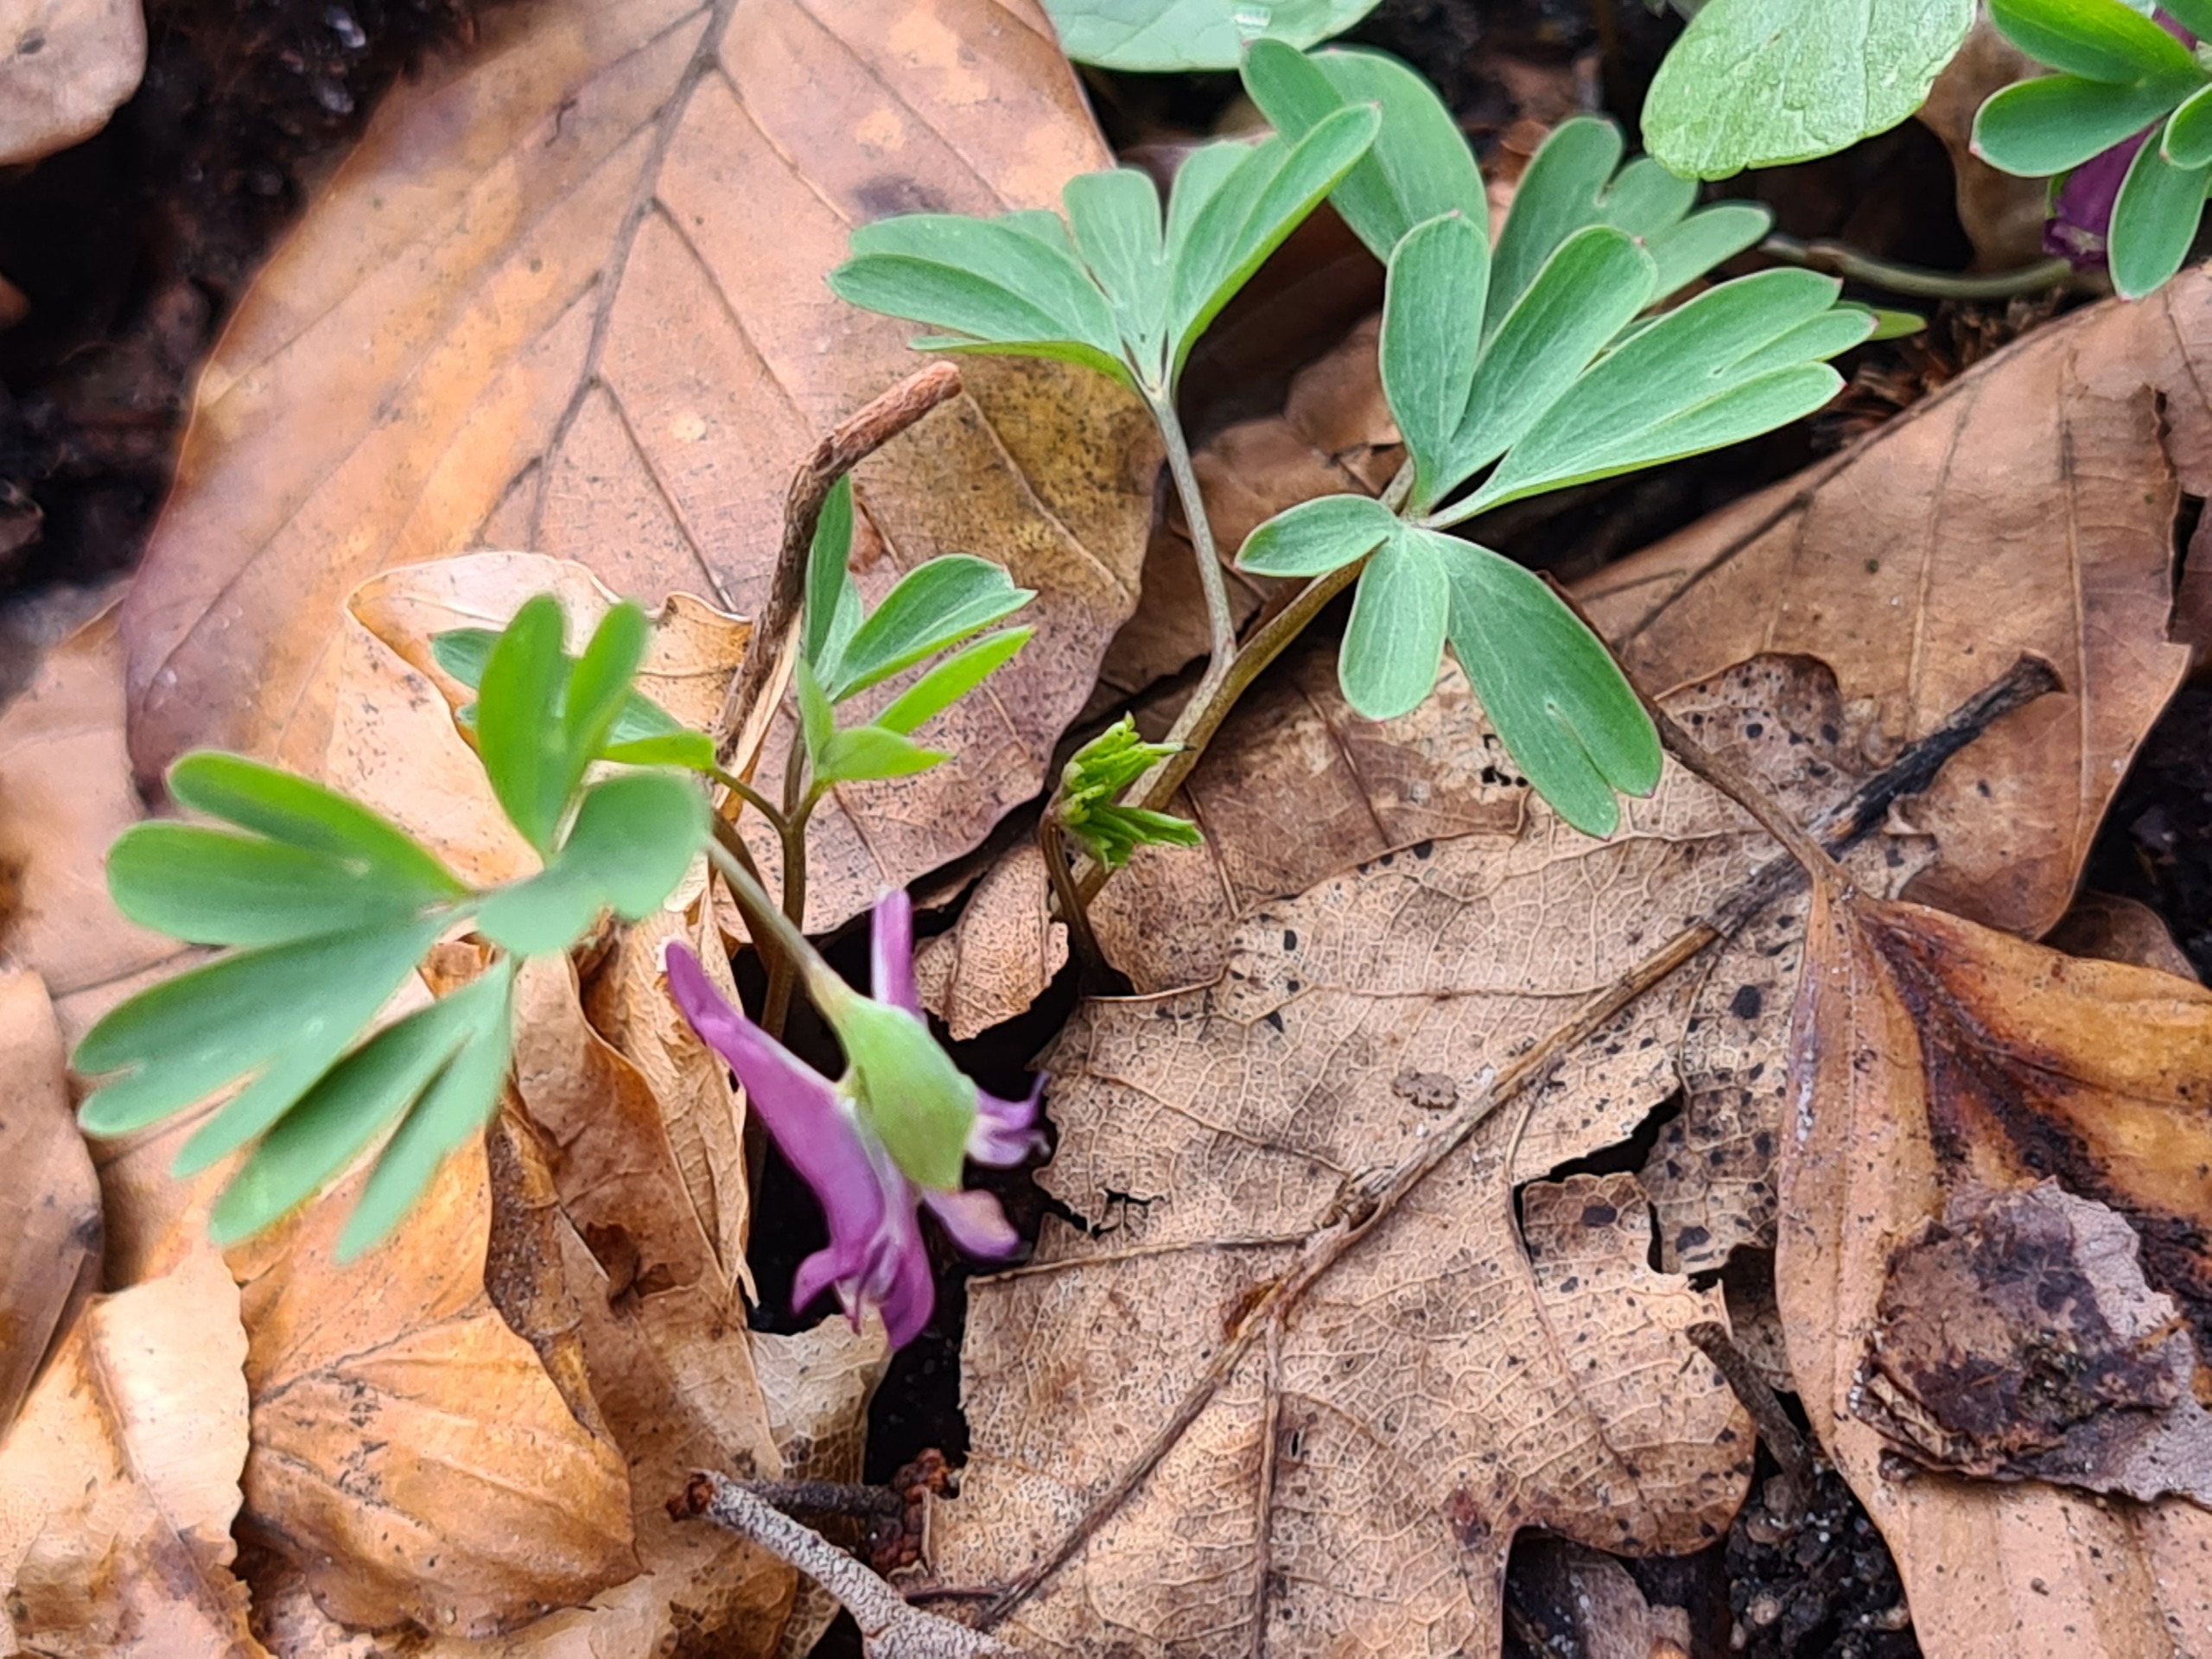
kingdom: Plantae
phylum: Tracheophyta
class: Magnoliopsida
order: Ranunculales
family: Papaveraceae
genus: Corydalis
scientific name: Corydalis intermedia
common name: Liden lærkespore
